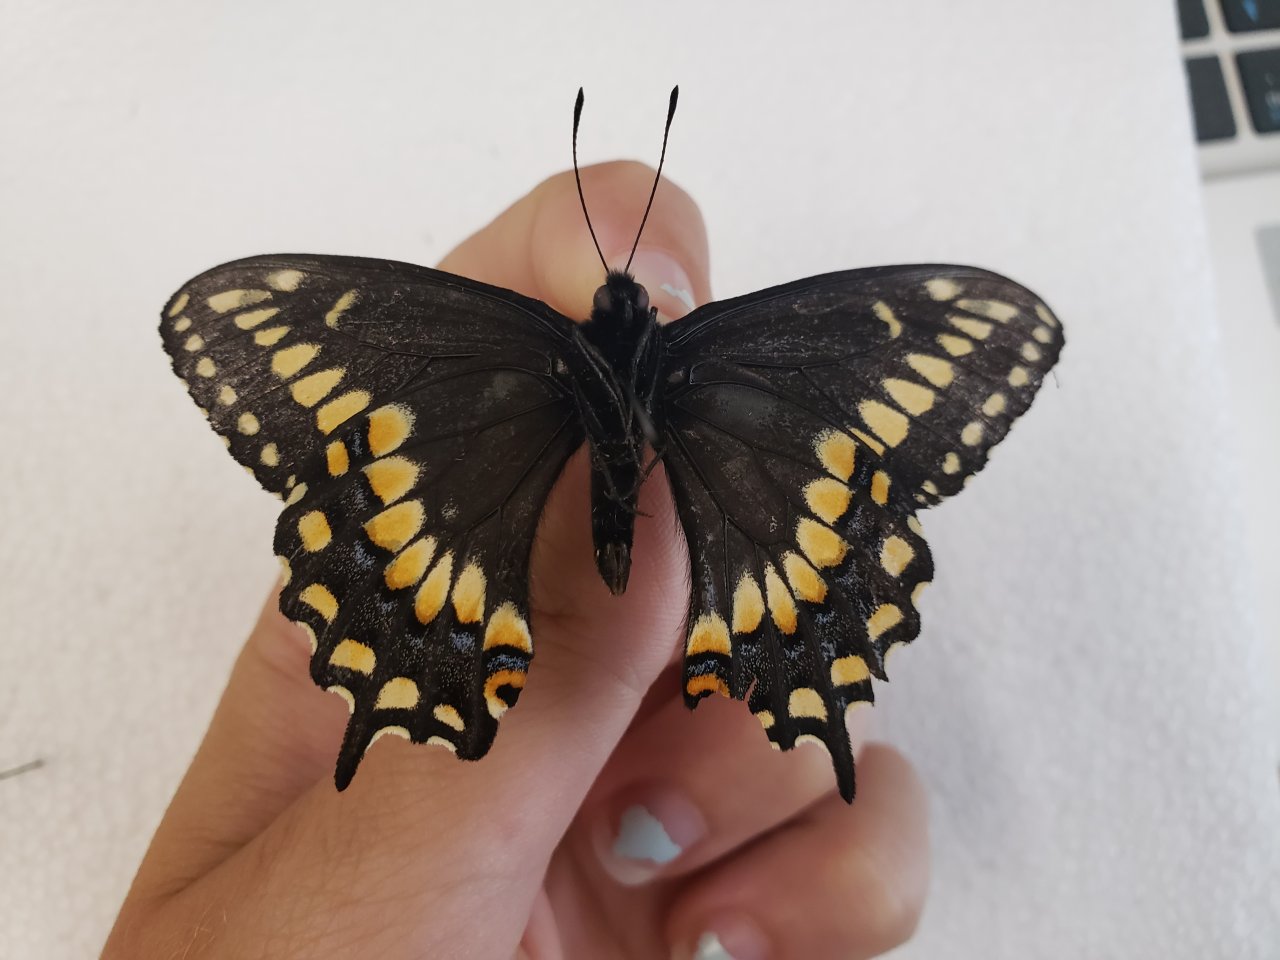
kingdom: Animalia
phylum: Arthropoda
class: Insecta
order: Lepidoptera
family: Papilionidae
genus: Papilio
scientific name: Papilio brevicauda
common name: Short-tailed Swallowtail
